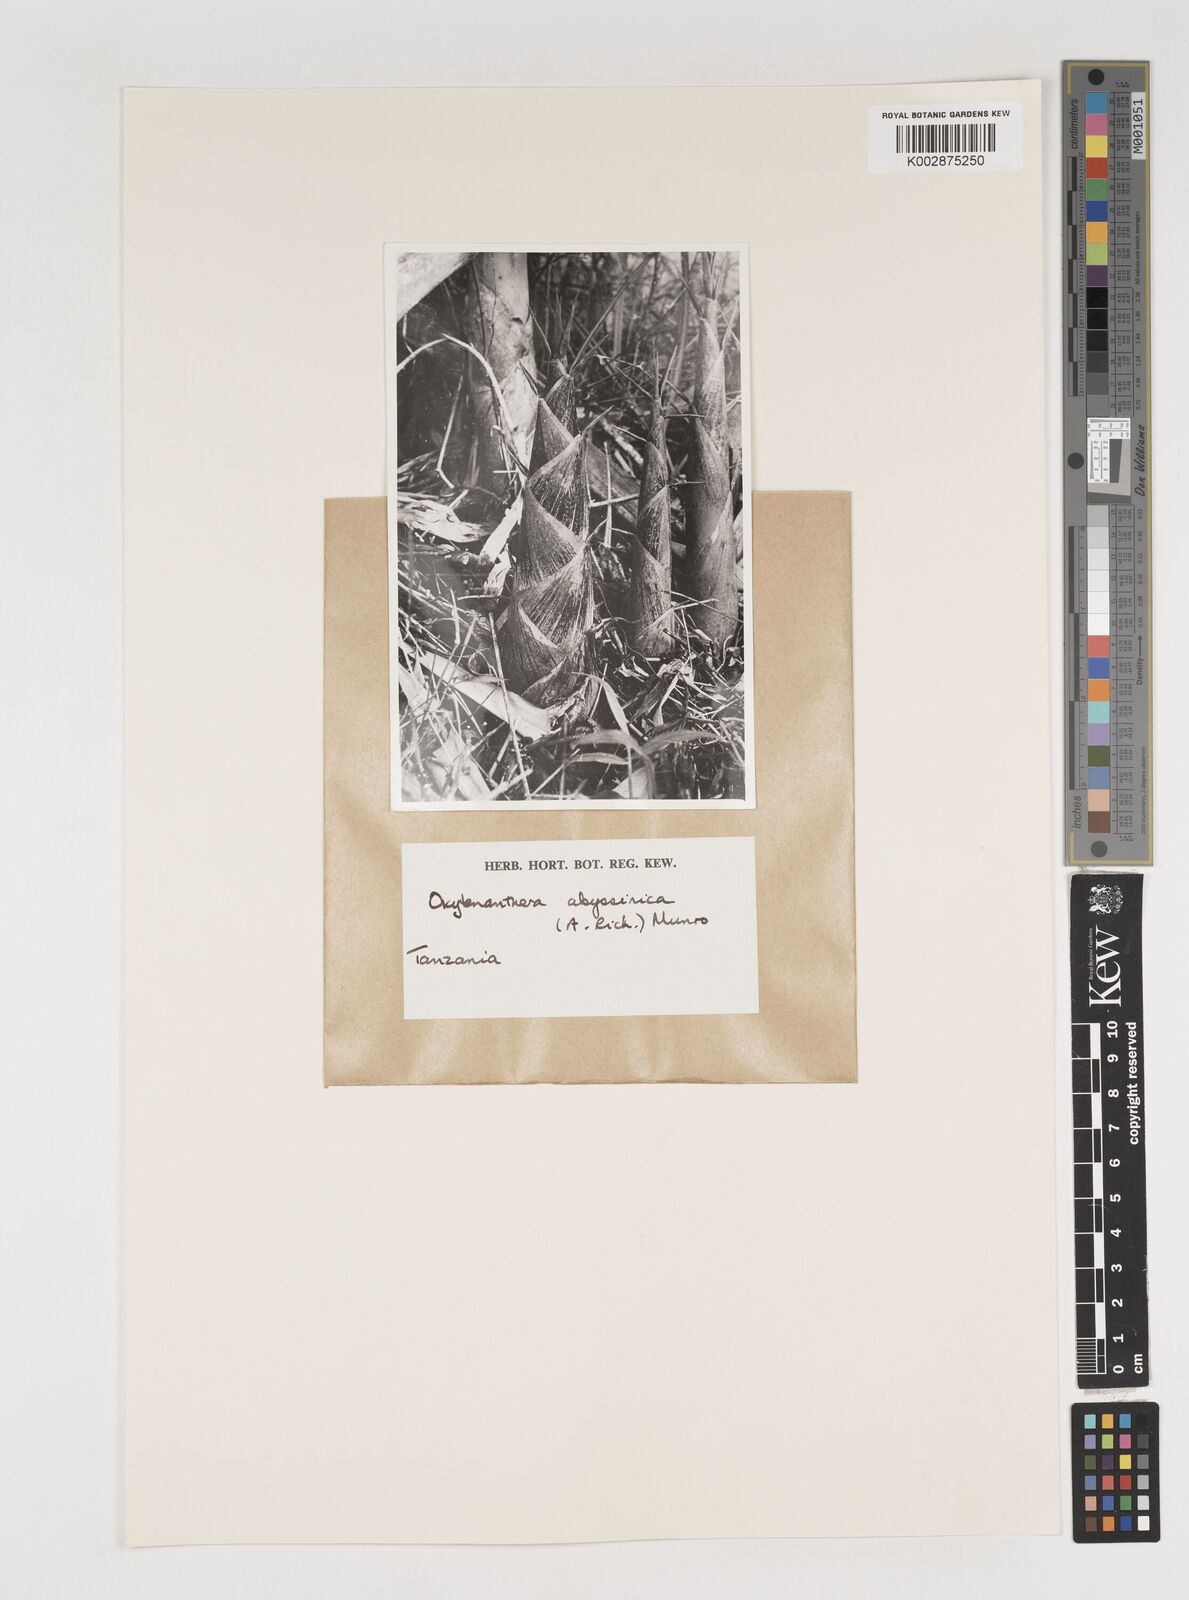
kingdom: Plantae
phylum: Tracheophyta
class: Liliopsida
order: Poales
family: Poaceae
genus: Oxytenanthera
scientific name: Oxytenanthera abyssinica
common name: Wine bamboo
